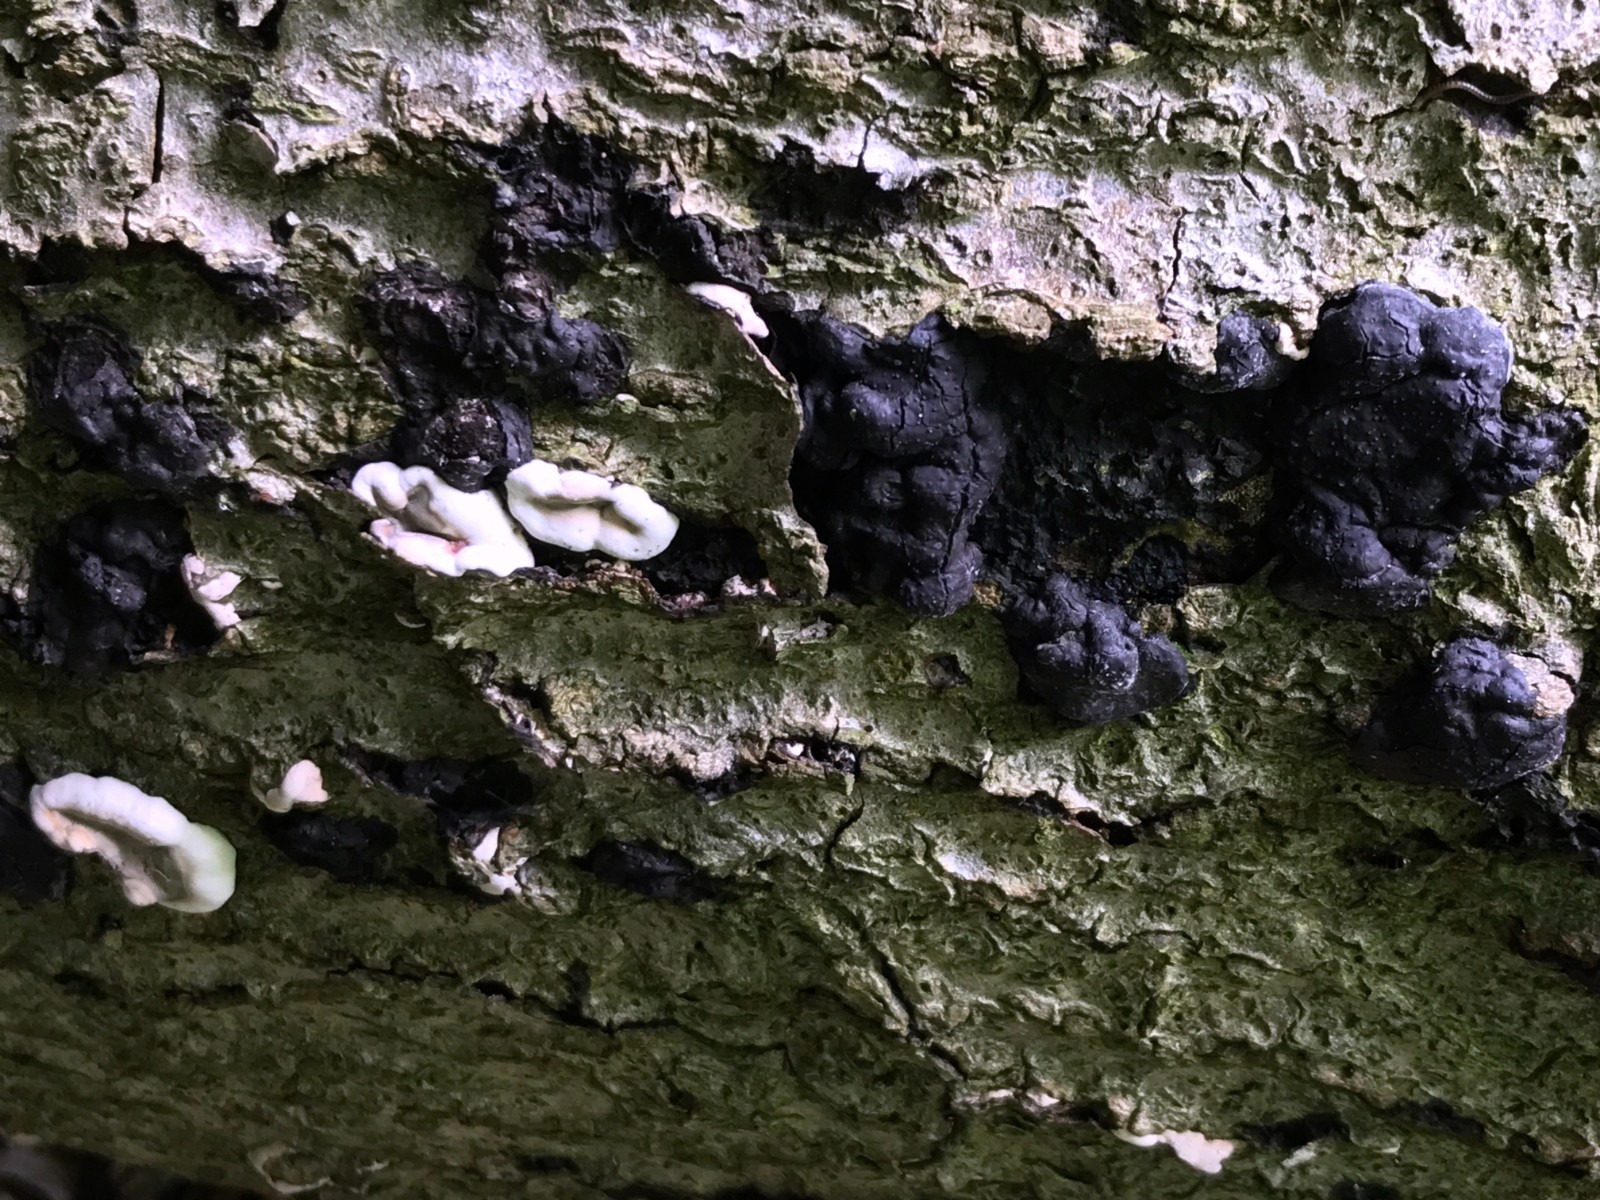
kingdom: Fungi
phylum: Ascomycota
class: Sordariomycetes
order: Xylariales
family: Xylariaceae
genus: Kretzschmaria
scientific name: Kretzschmaria deusta
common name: stor kulsvamp
